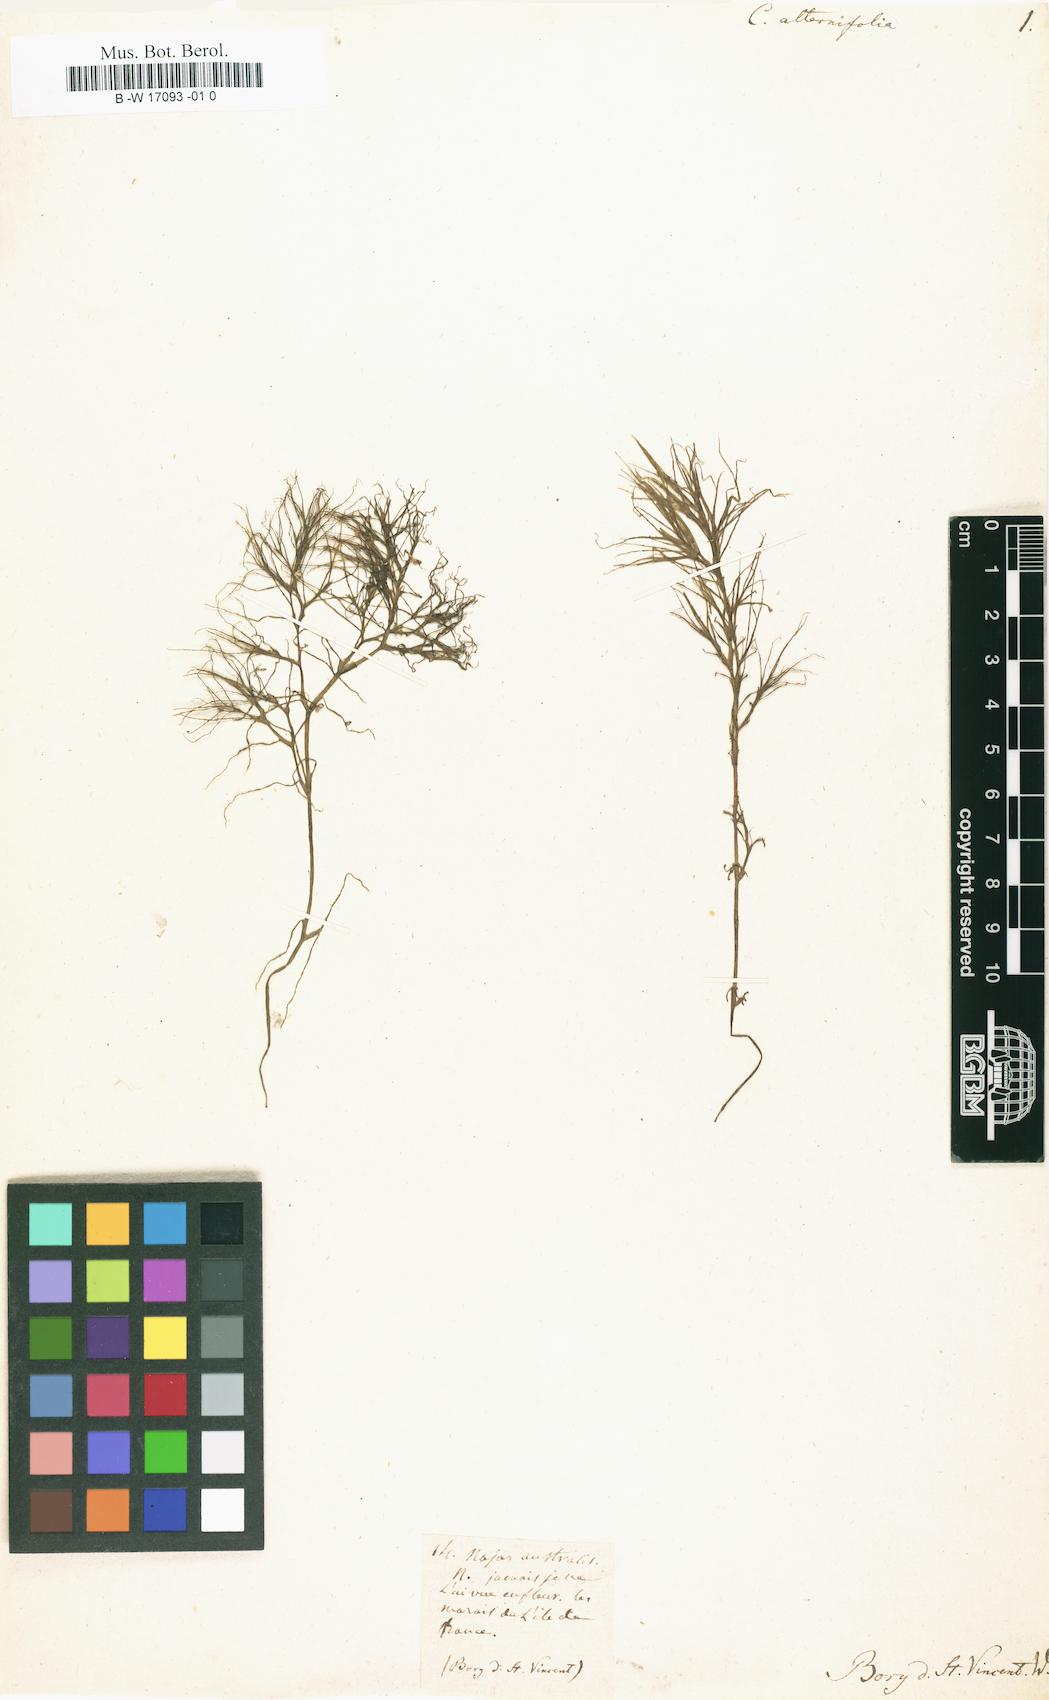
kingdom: Plantae
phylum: Tracheophyta
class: Liliopsida
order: Alismatales
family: Hydrocharitaceae
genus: Najas
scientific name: Najas indica
